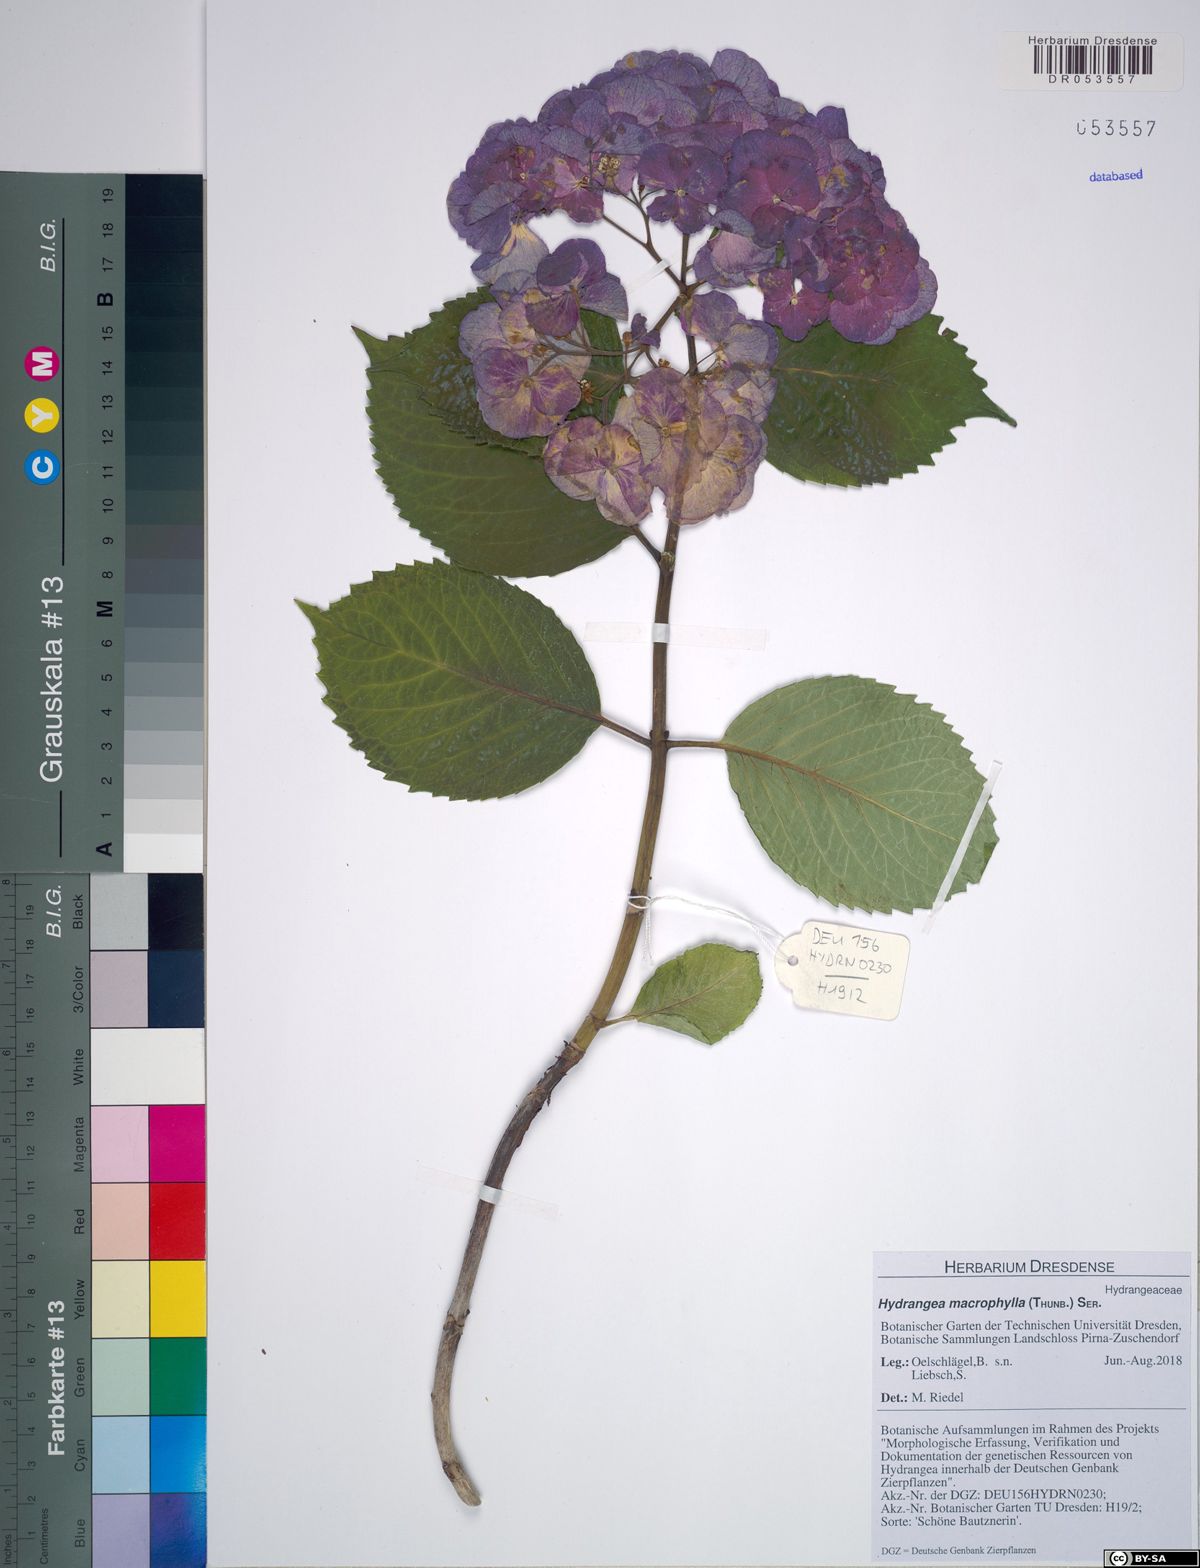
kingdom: Plantae
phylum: Tracheophyta
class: Magnoliopsida
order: Cornales
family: Hydrangeaceae
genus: Hydrangea
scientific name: Hydrangea macrophylla
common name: Hydrangea
